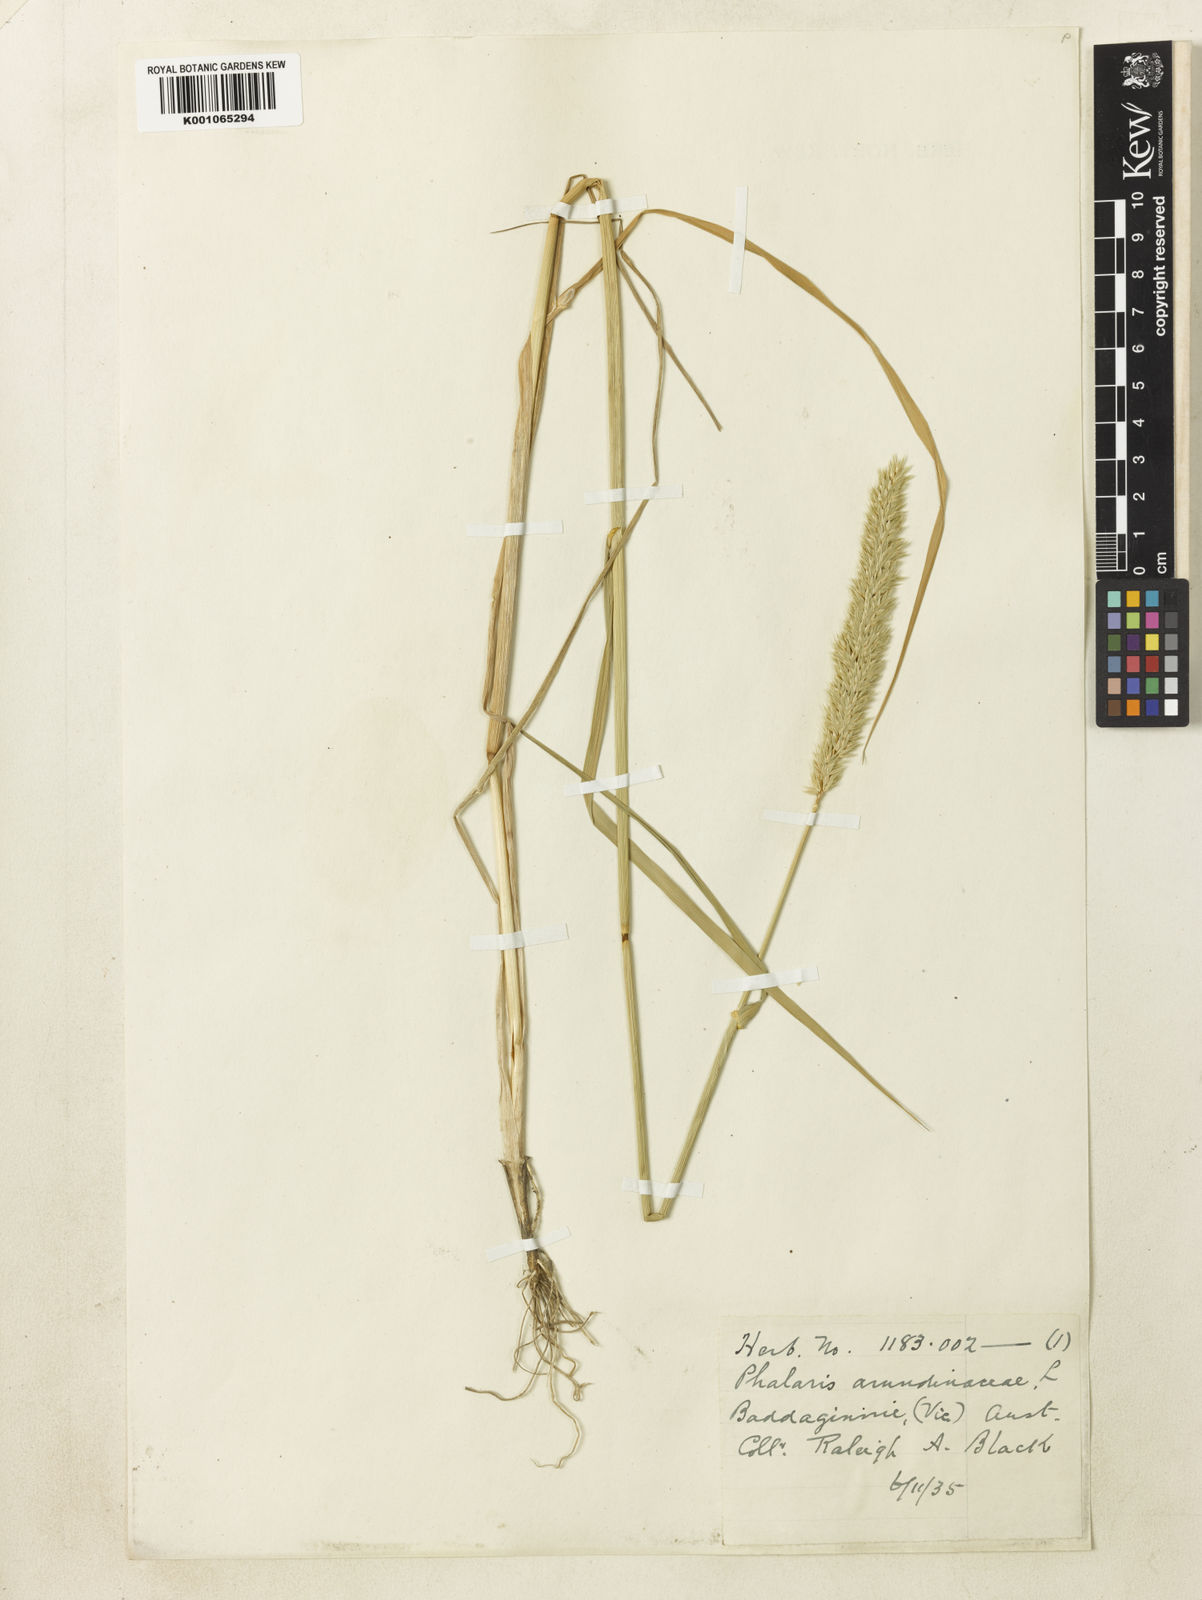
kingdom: Plantae
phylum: Tracheophyta
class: Liliopsida
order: Poales
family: Poaceae
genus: Phalaris
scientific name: Phalaris arundinacea
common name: Reed canary-grass
